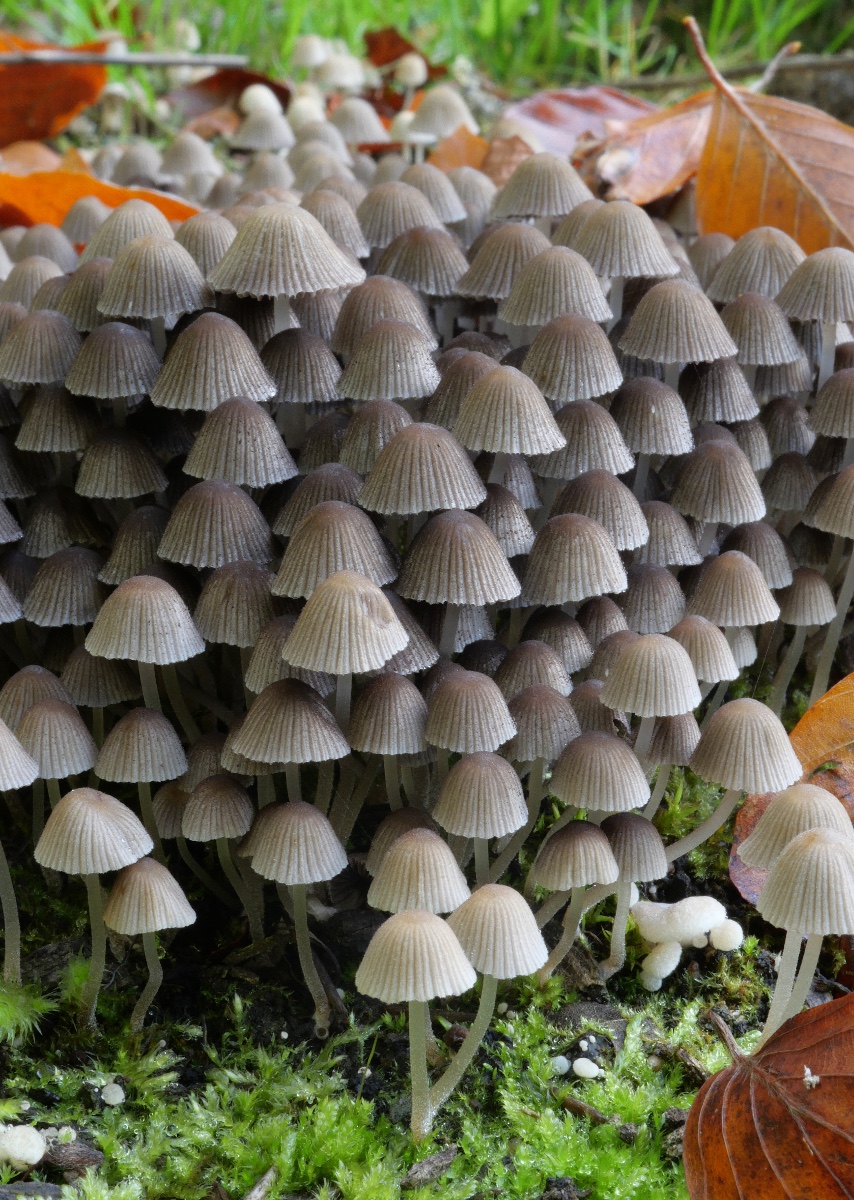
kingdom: Fungi
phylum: Basidiomycota
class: Agaricomycetes
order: Agaricales
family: Psathyrellaceae
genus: Coprinellus
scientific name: Coprinellus disseminatus
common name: bredsået blækhat
